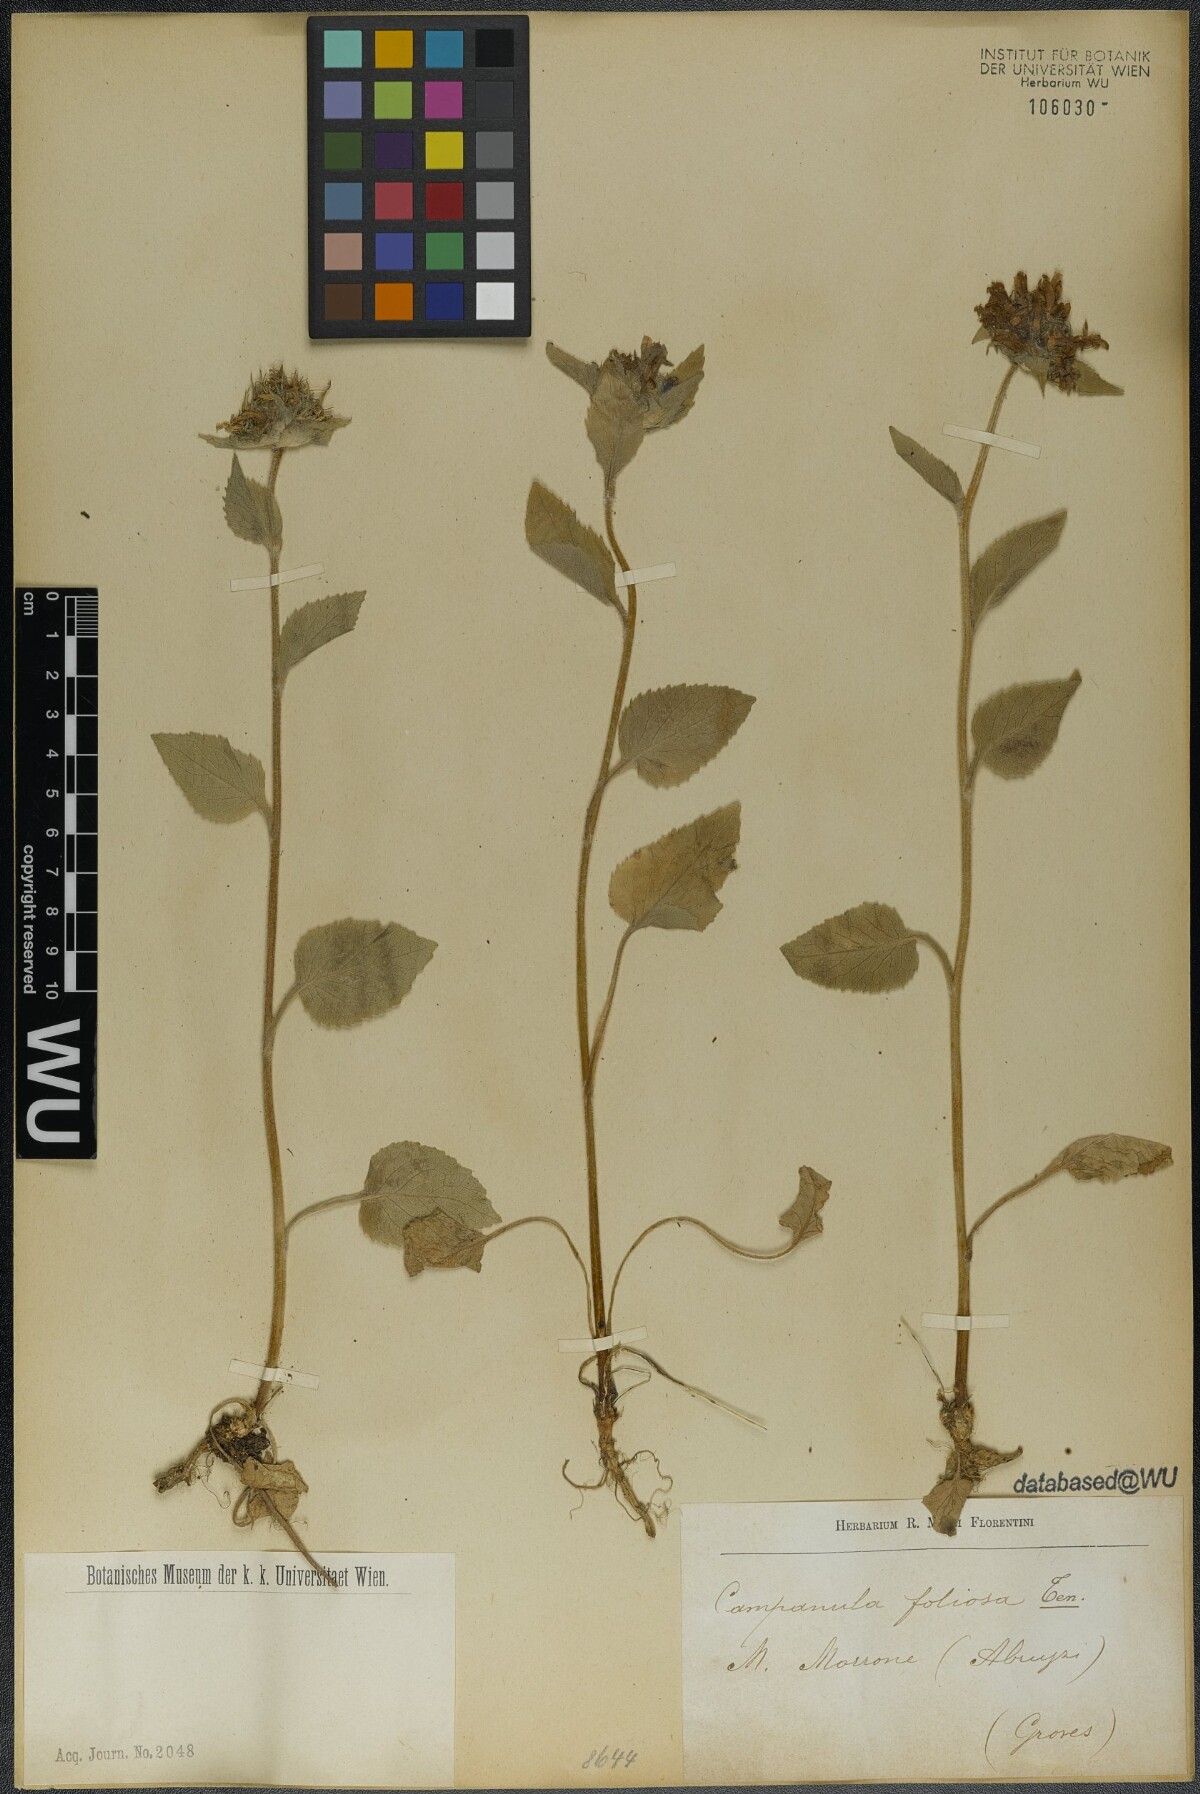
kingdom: Plantae
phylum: Tracheophyta
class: Magnoliopsida
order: Asterales
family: Campanulaceae
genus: Campanula
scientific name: Campanula foliosa
